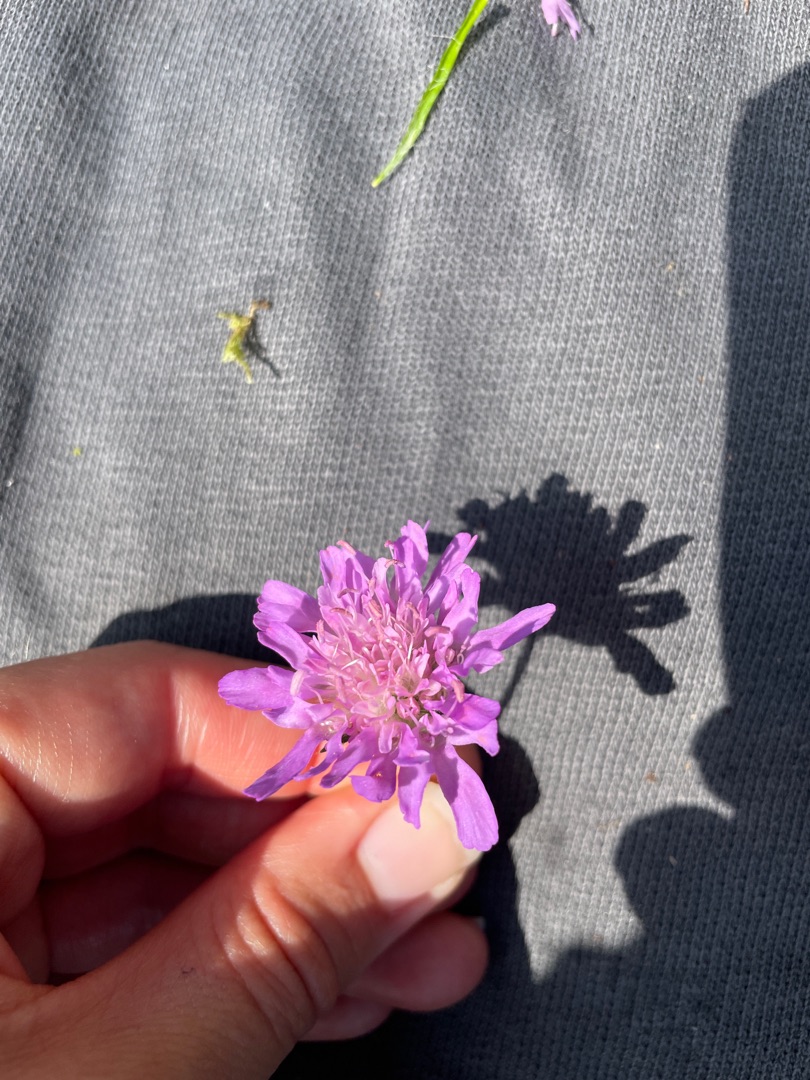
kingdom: Plantae
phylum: Tracheophyta
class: Magnoliopsida
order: Dipsacales
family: Caprifoliaceae
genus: Knautia
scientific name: Knautia arvensis
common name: Blåhat
